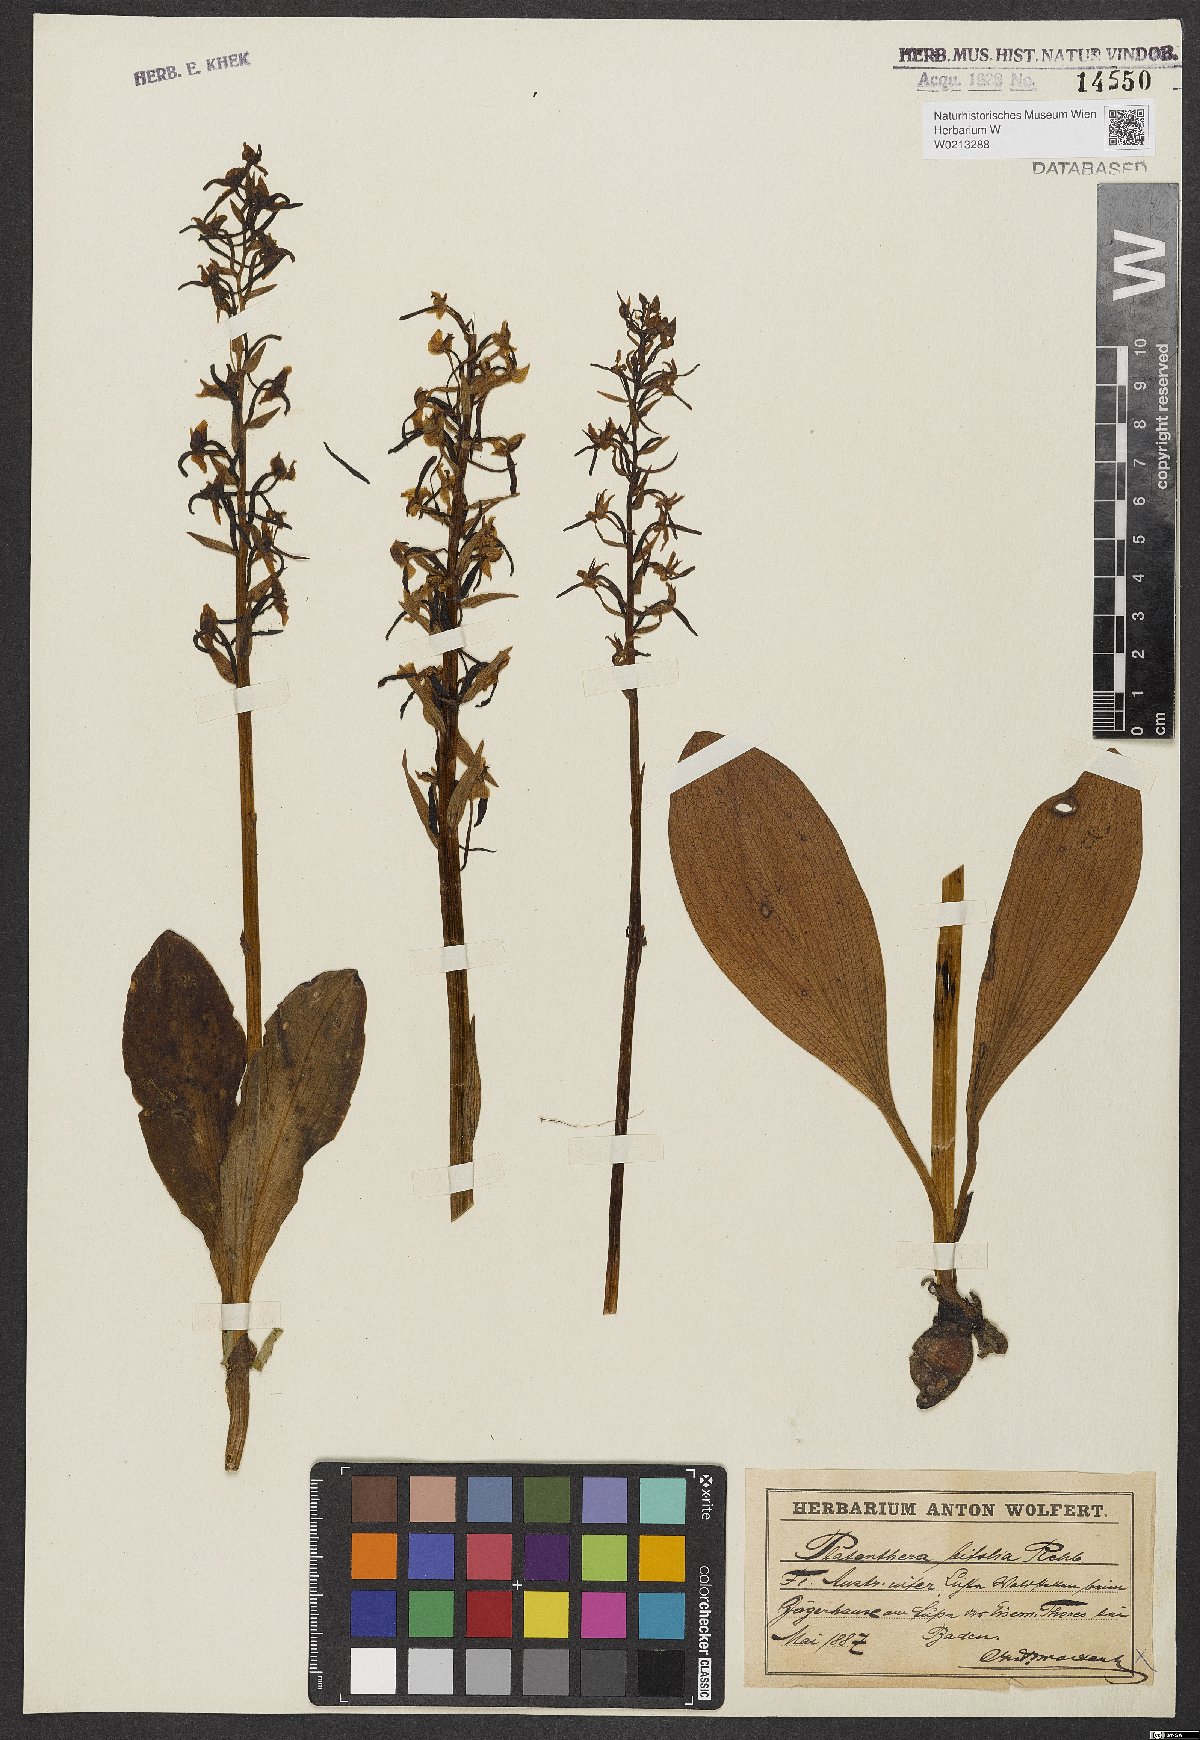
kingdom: Plantae
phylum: Tracheophyta
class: Liliopsida
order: Asparagales
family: Orchidaceae
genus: Platanthera
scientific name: Platanthera bifolia
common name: Lesser butterfly-orchid
